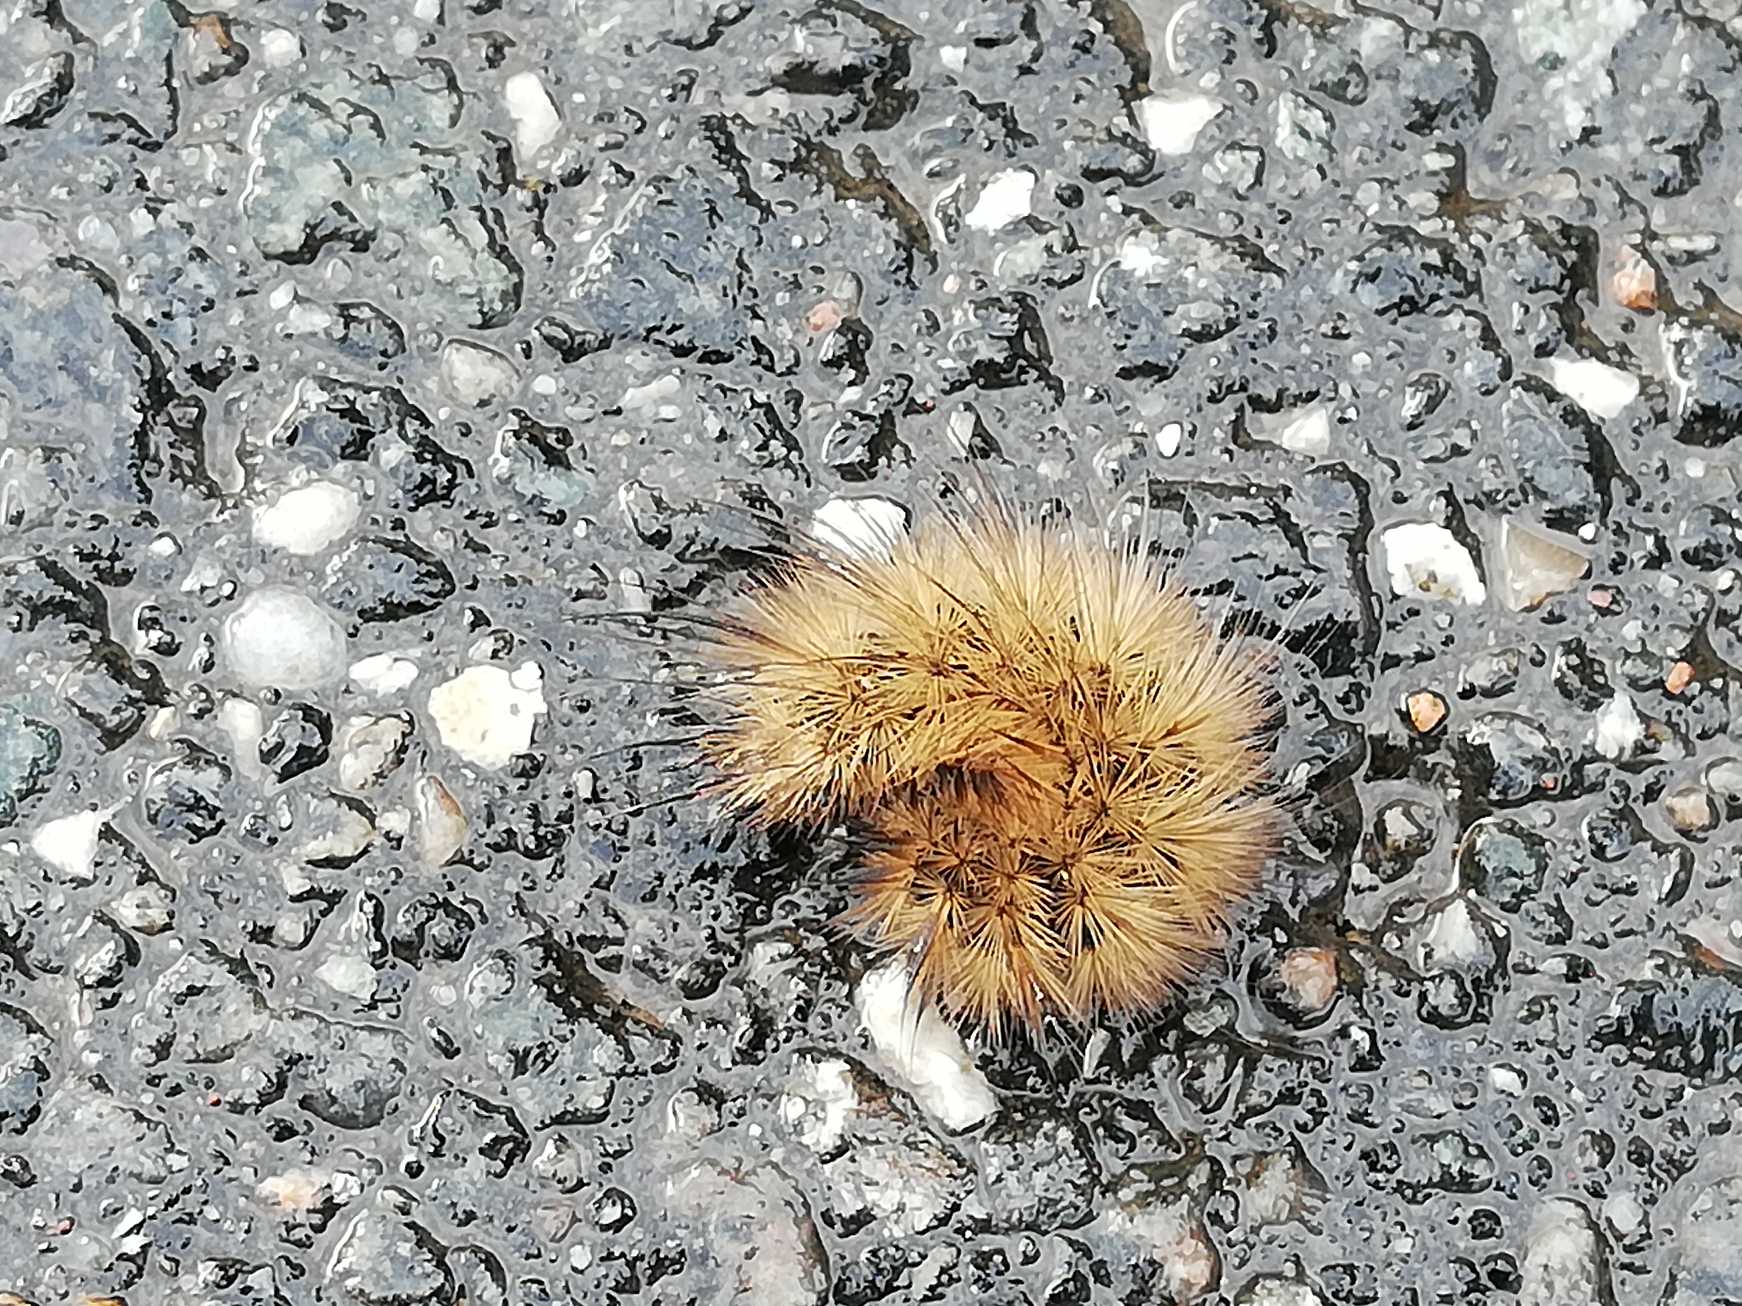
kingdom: Animalia
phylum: Arthropoda
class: Insecta
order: Lepidoptera
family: Erebidae
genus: Phragmatobia
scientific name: Phragmatobia fuliginosa
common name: Kanelbjørn
